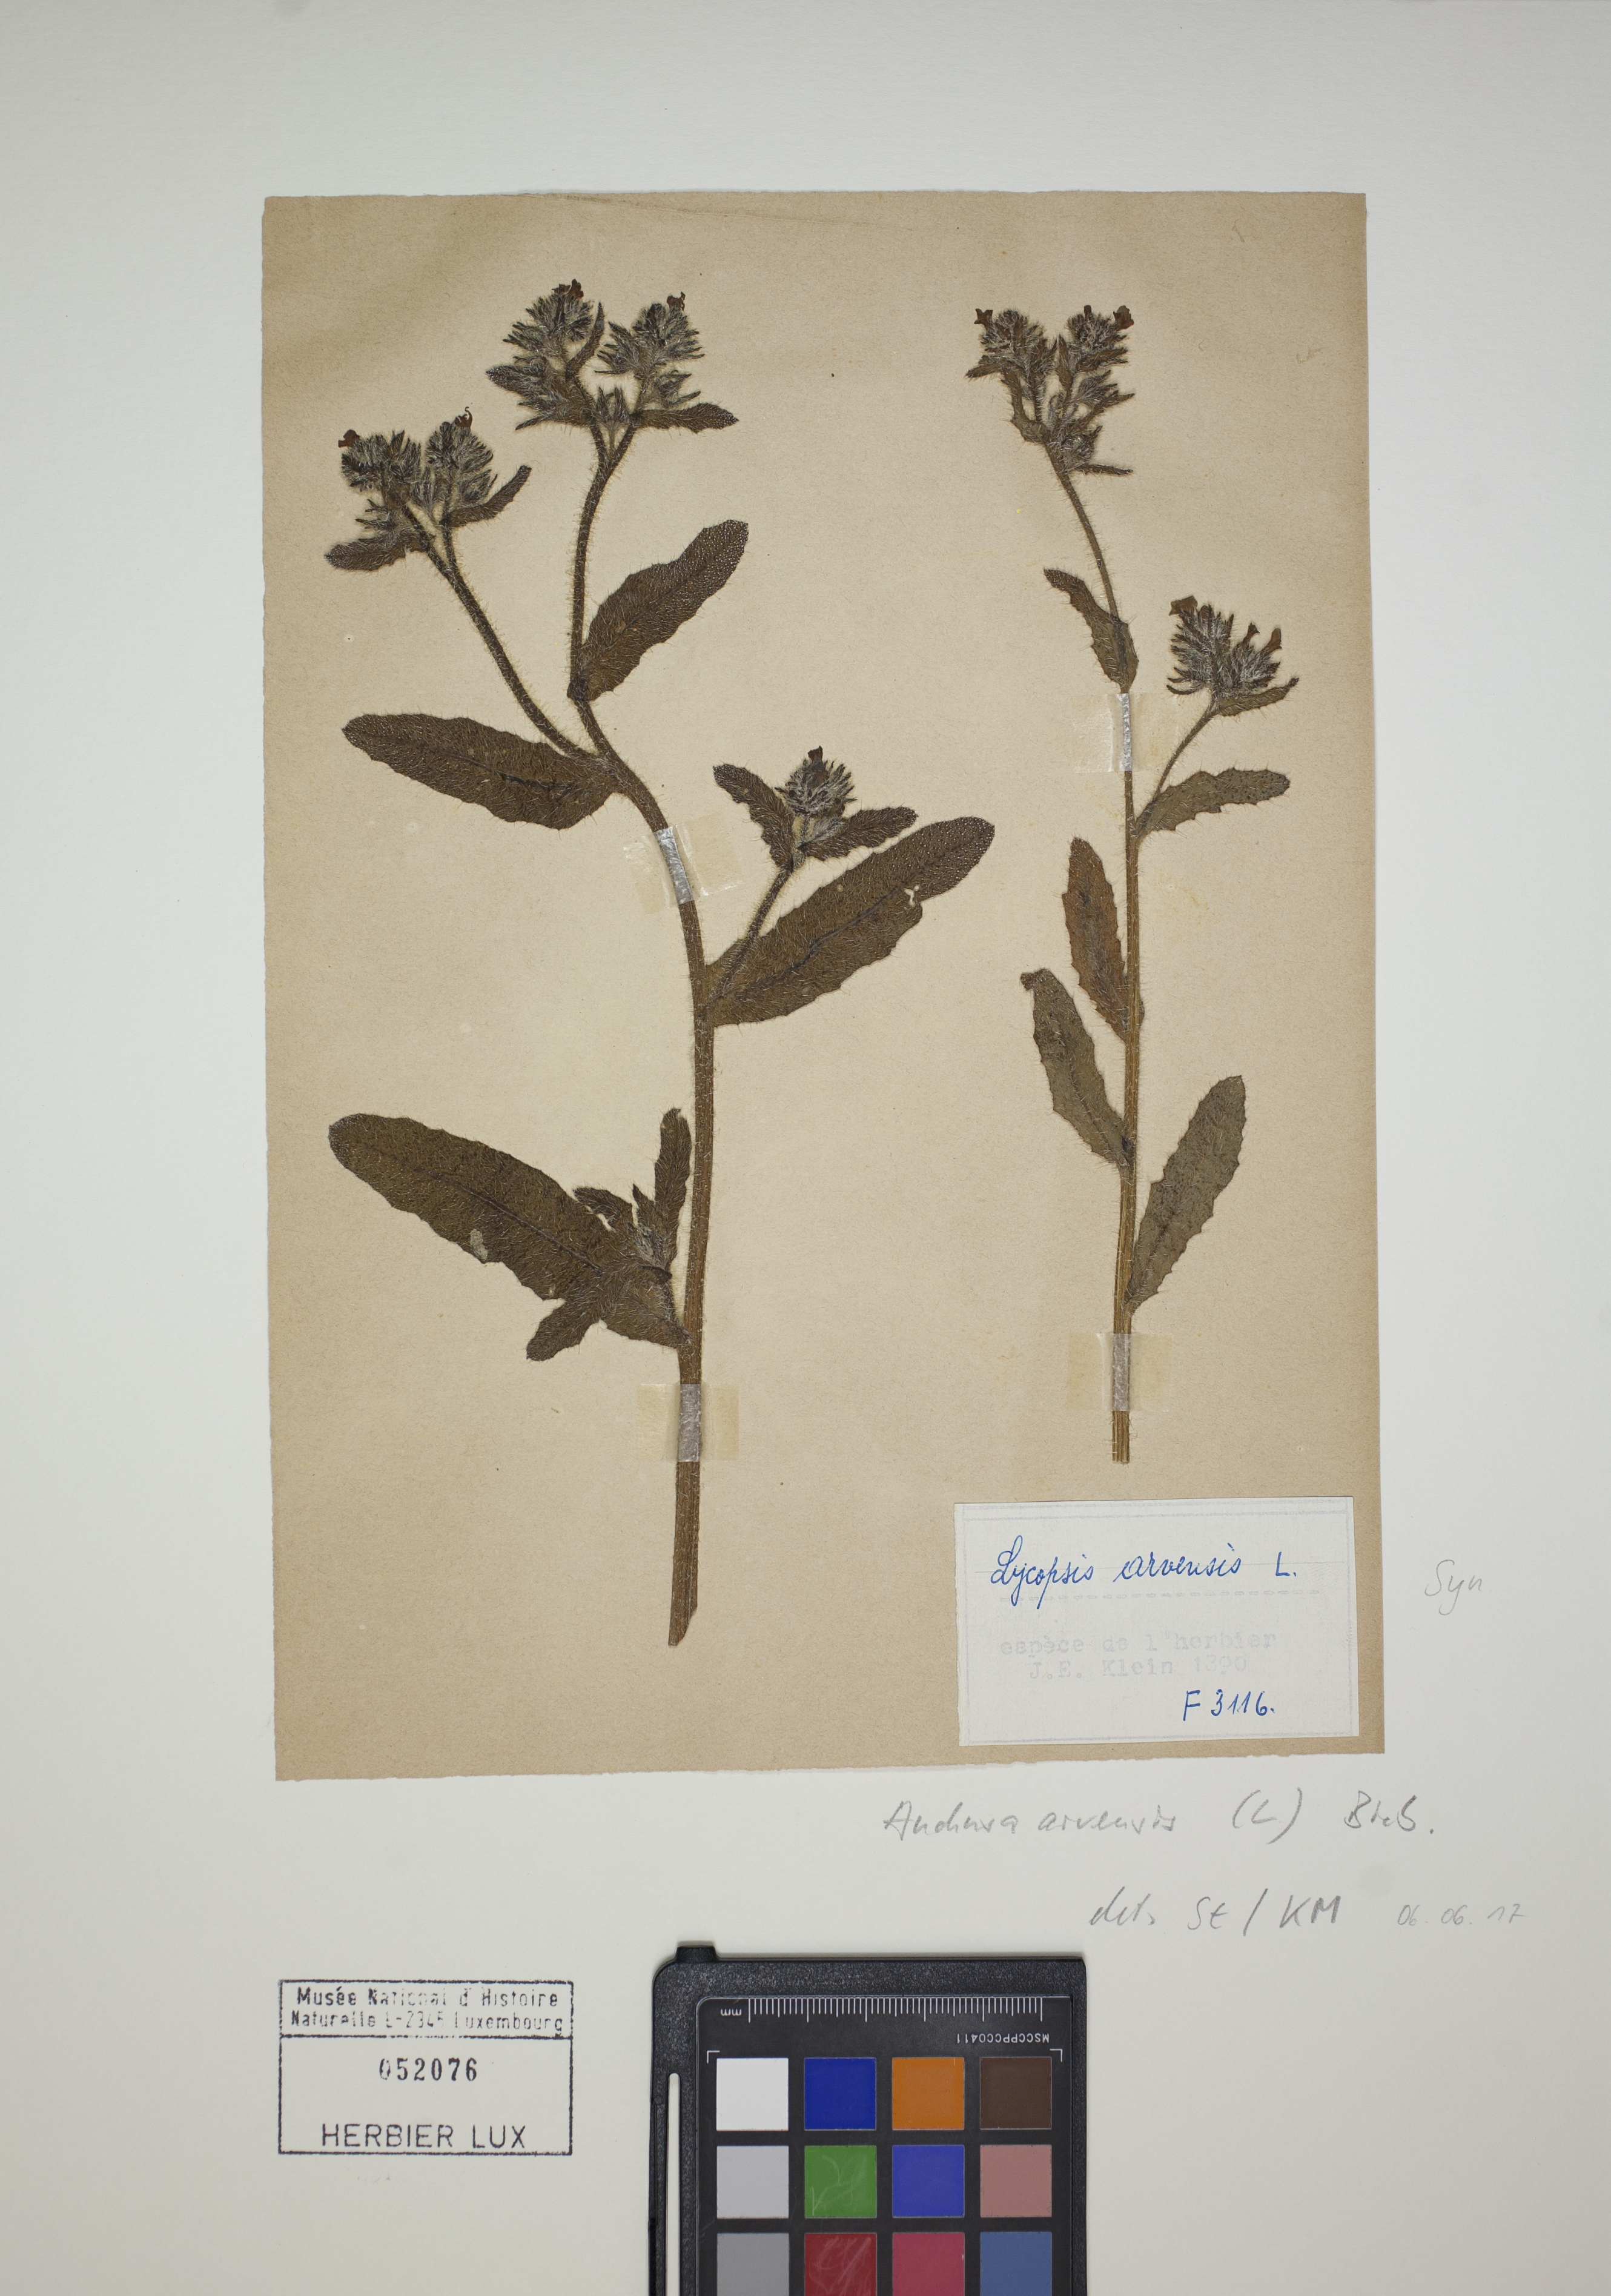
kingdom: Plantae
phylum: Tracheophyta
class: Magnoliopsida
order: Boraginales
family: Boraginaceae
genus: Lycopsis
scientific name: Lycopsis arvensis
